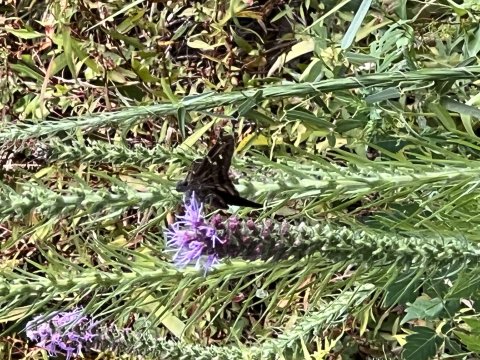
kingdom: Animalia
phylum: Arthropoda
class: Insecta
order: Lepidoptera
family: Hesperiidae
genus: Urbanus
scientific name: Urbanus proteus
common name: Long-tailed Skipper
